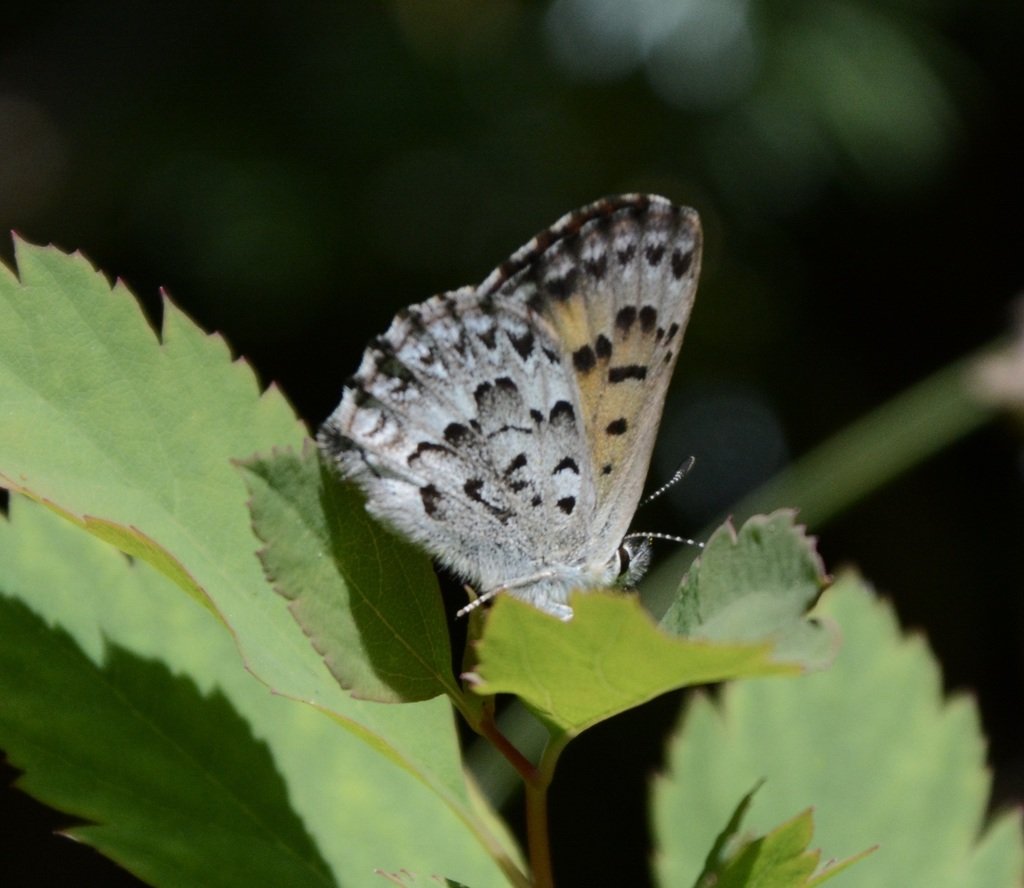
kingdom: Animalia
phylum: Arthropoda
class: Insecta
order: Lepidoptera
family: Lycaenidae
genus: Lycaena
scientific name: Lycaena mariposa
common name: Mariposa Copper
